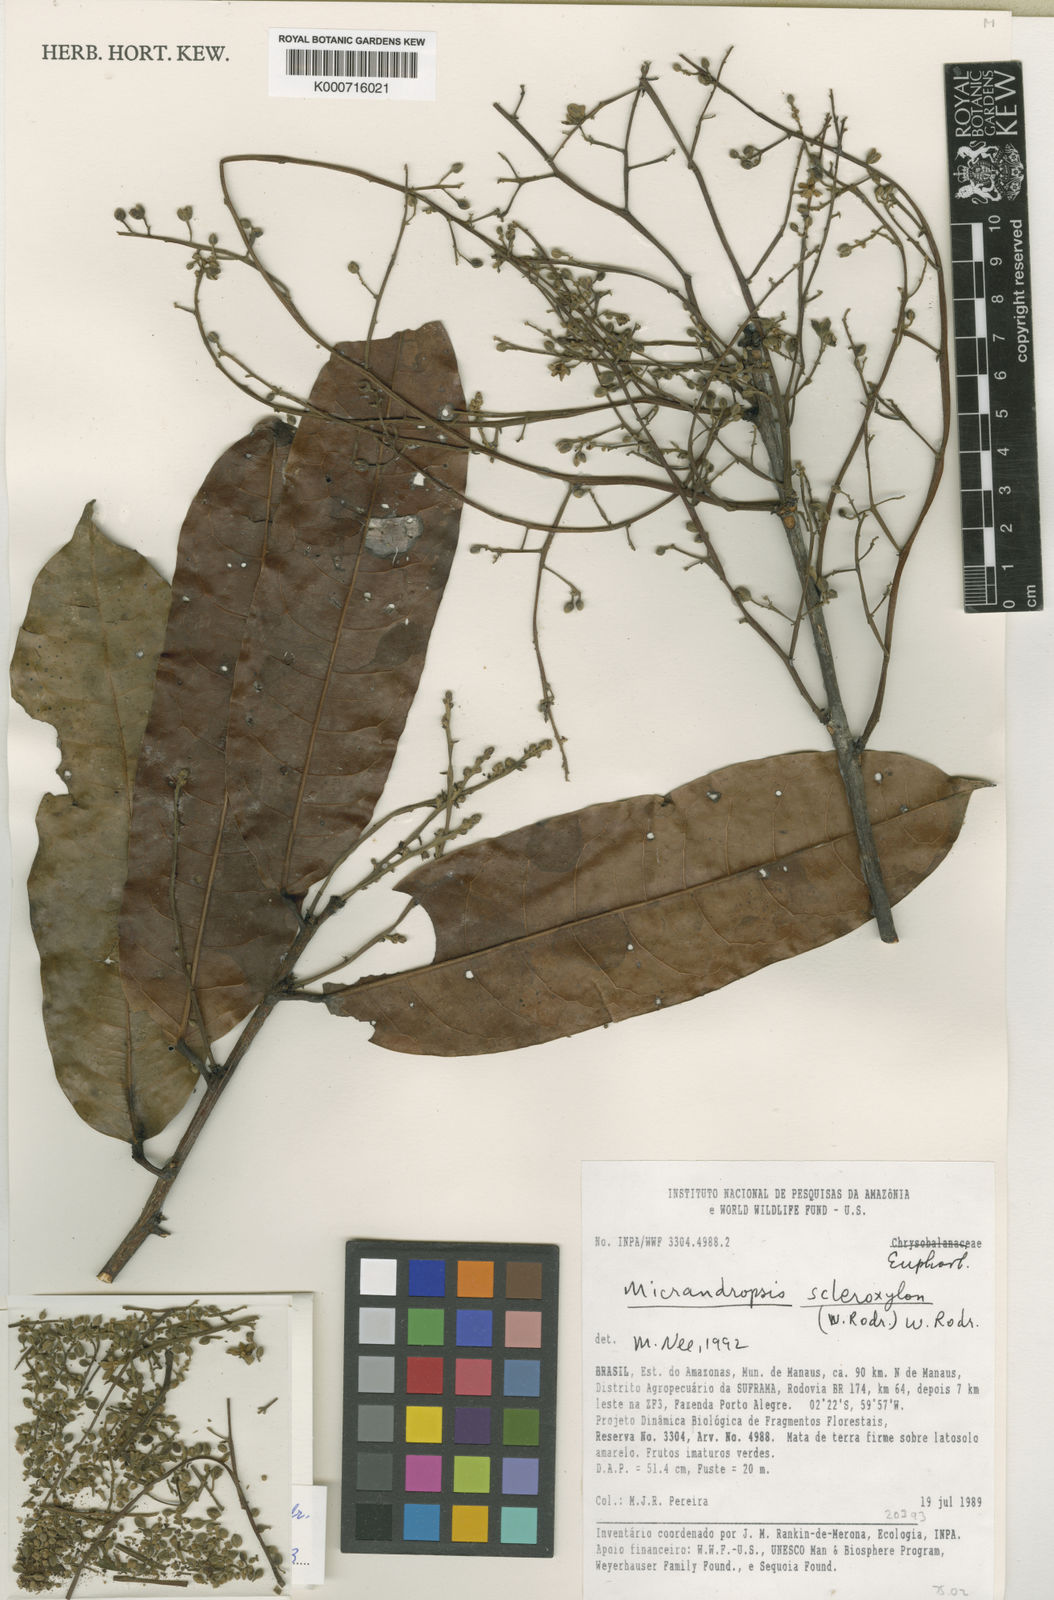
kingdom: Plantae
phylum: Tracheophyta
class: Magnoliopsida
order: Malpighiales
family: Euphorbiaceae
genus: Micrandropsis
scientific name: Micrandropsis scleroxylon
